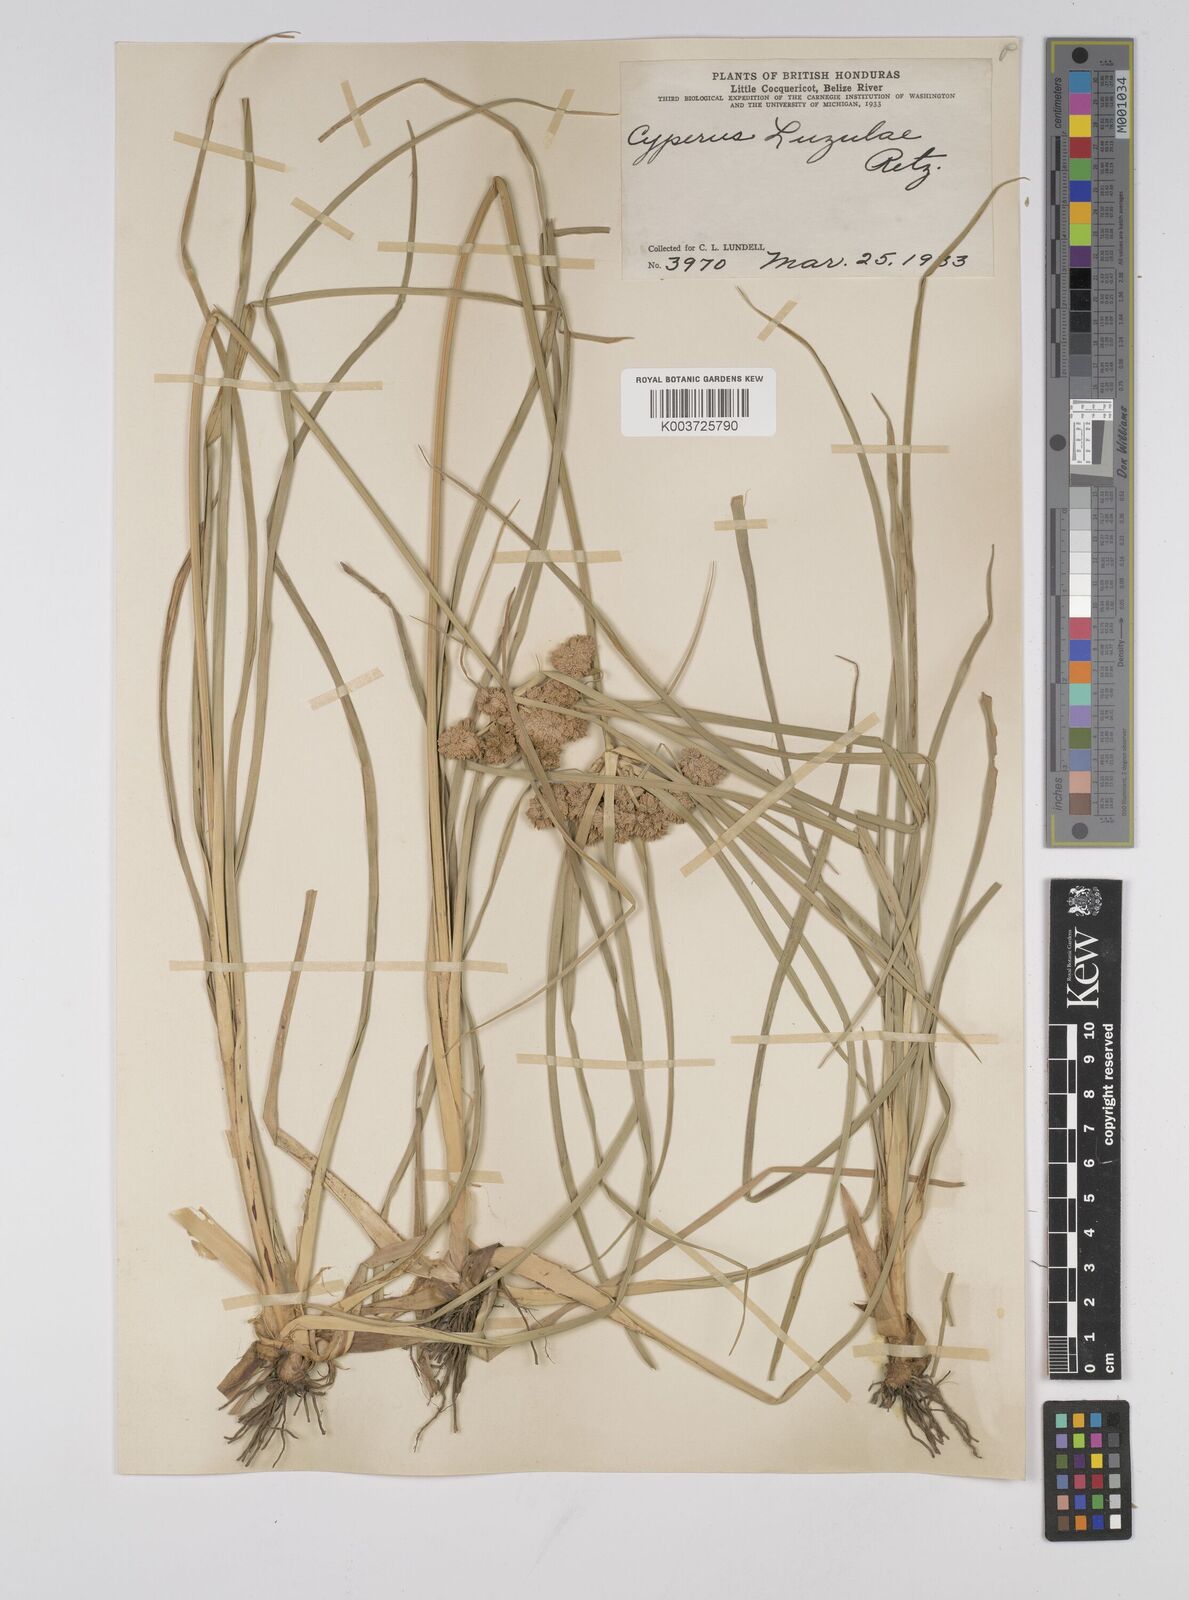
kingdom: Plantae
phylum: Tracheophyta
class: Liliopsida
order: Poales
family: Cyperaceae
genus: Cyperus
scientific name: Cyperus luzulae
